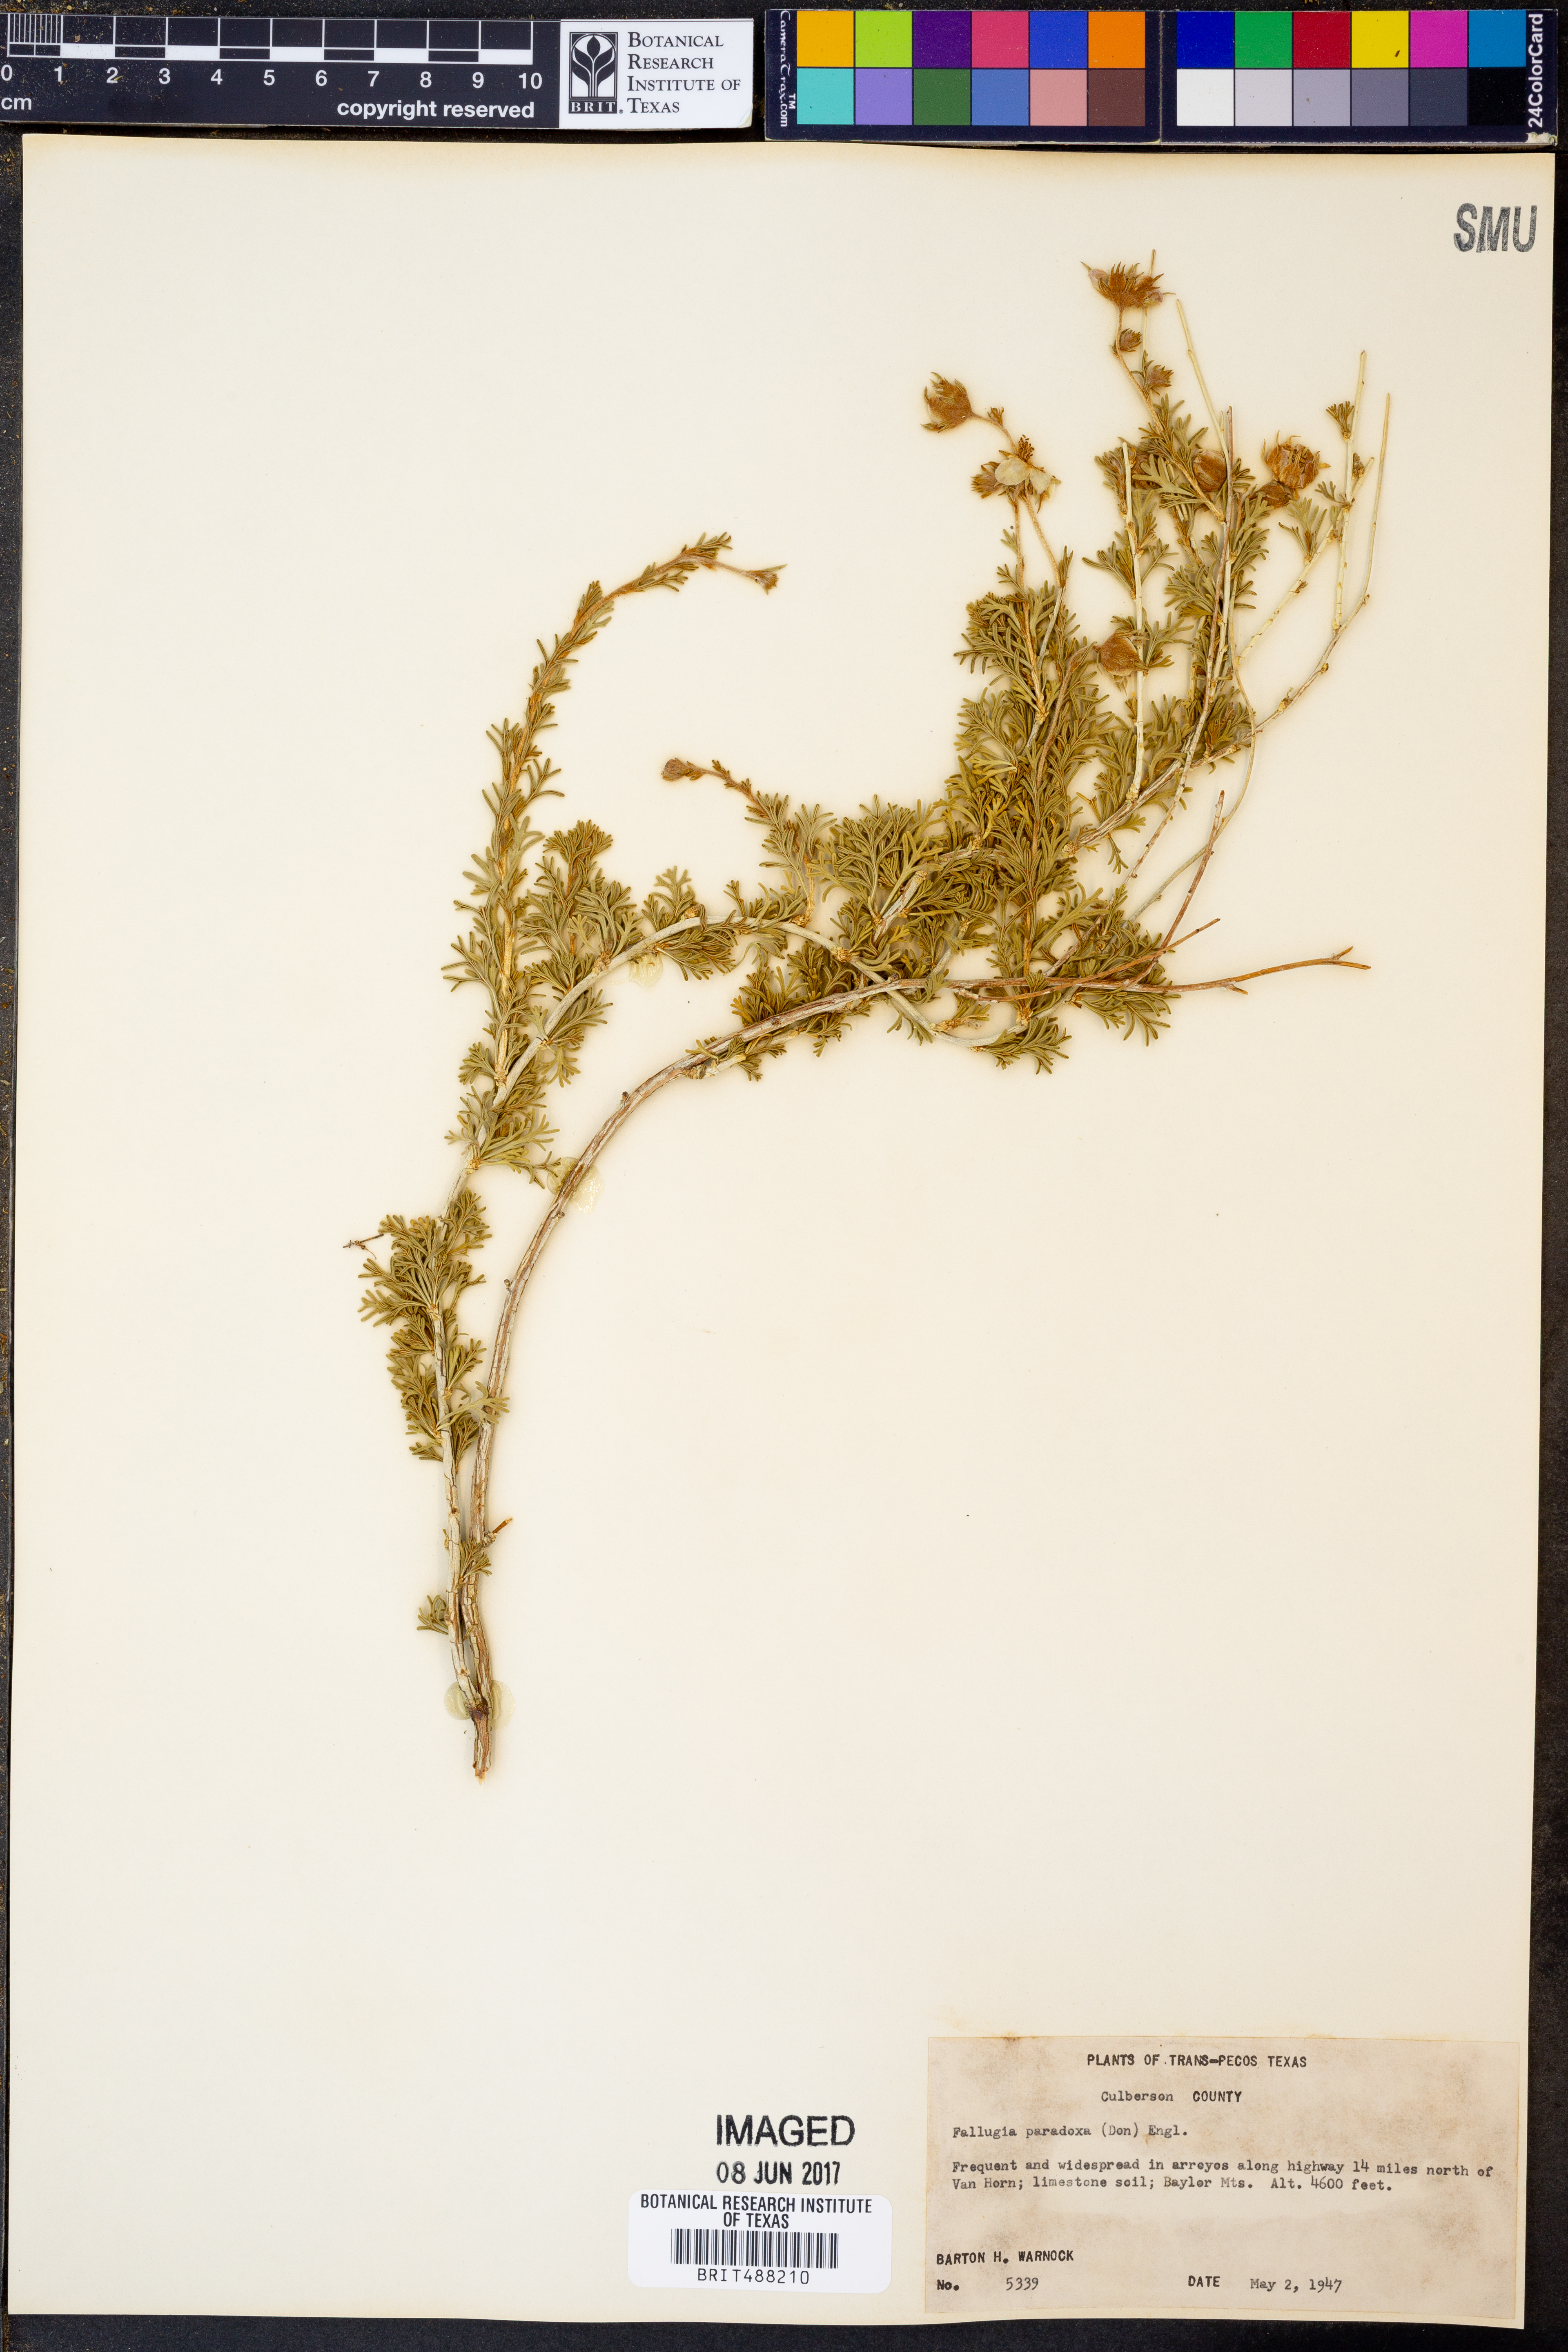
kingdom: Plantae
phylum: Tracheophyta
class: Magnoliopsida
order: Rosales
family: Rosaceae
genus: Fallugia
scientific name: Fallugia paradoxa
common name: Apache-plume
